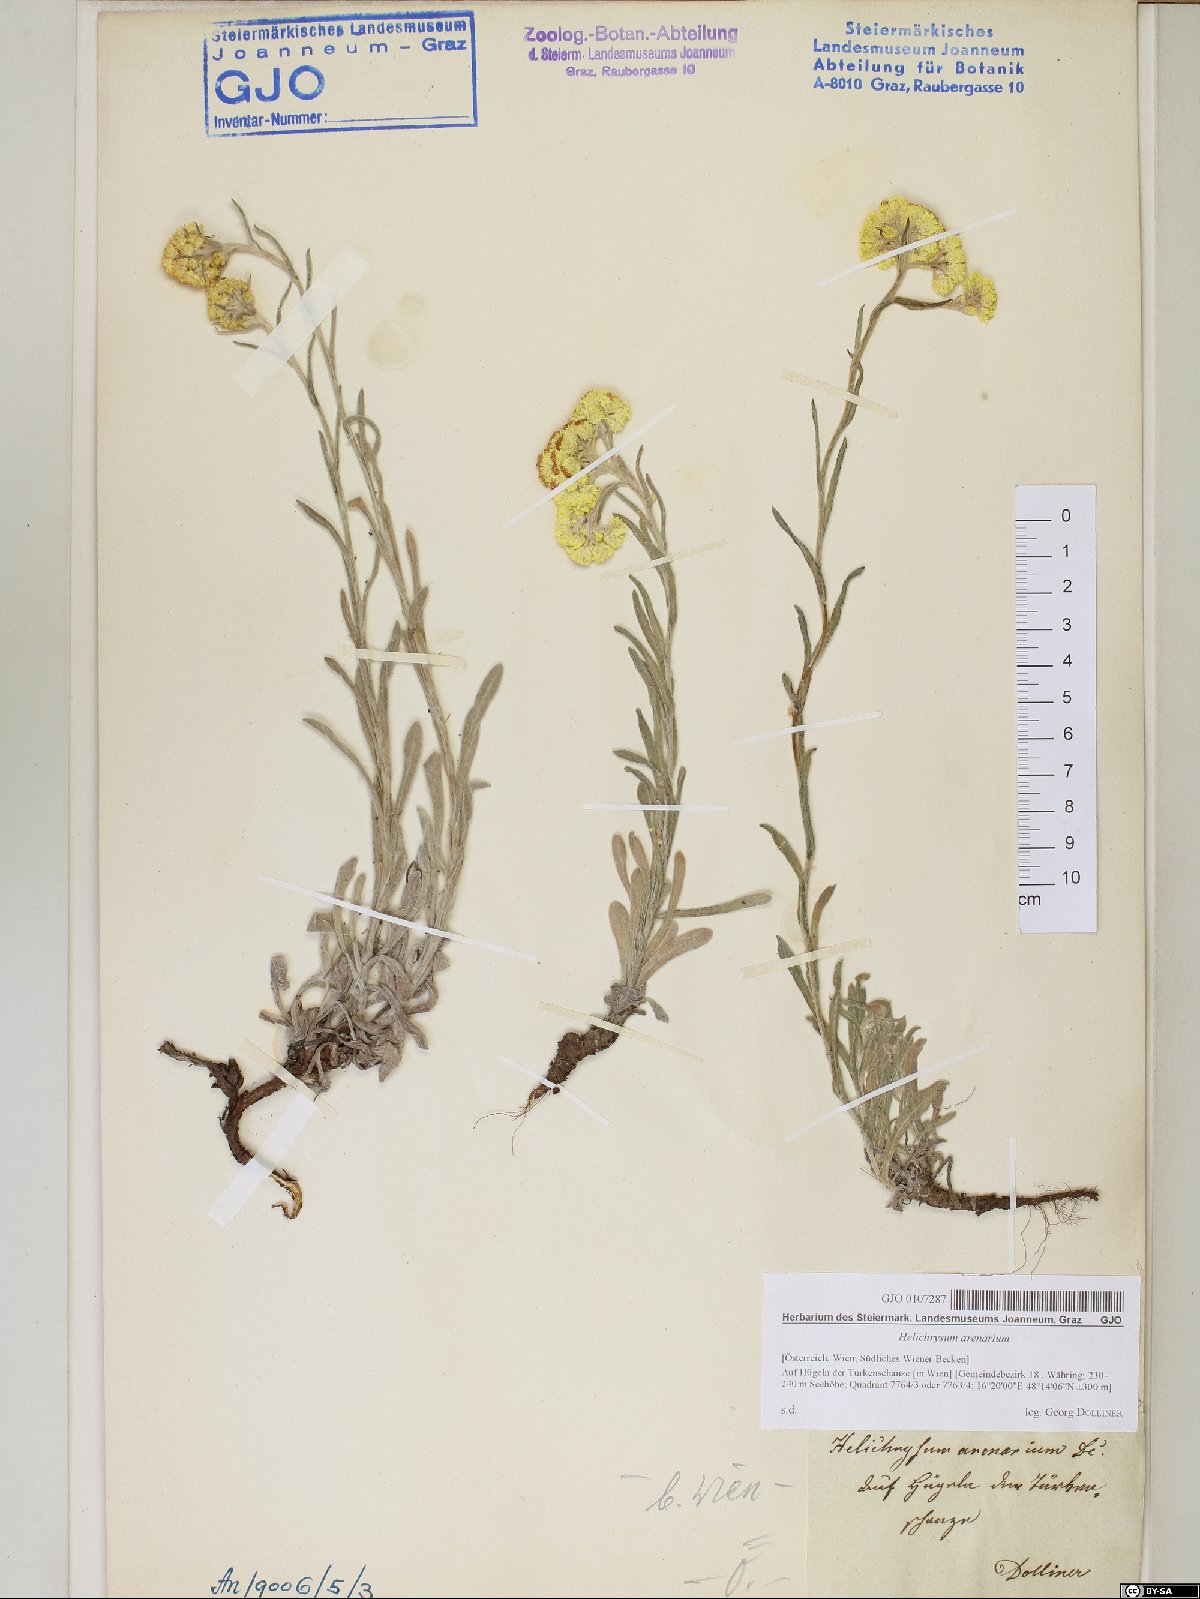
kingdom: Plantae
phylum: Tracheophyta
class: Magnoliopsida
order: Asterales
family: Asteraceae
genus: Helichrysum
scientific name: Helichrysum arenarium
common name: Strawflower
